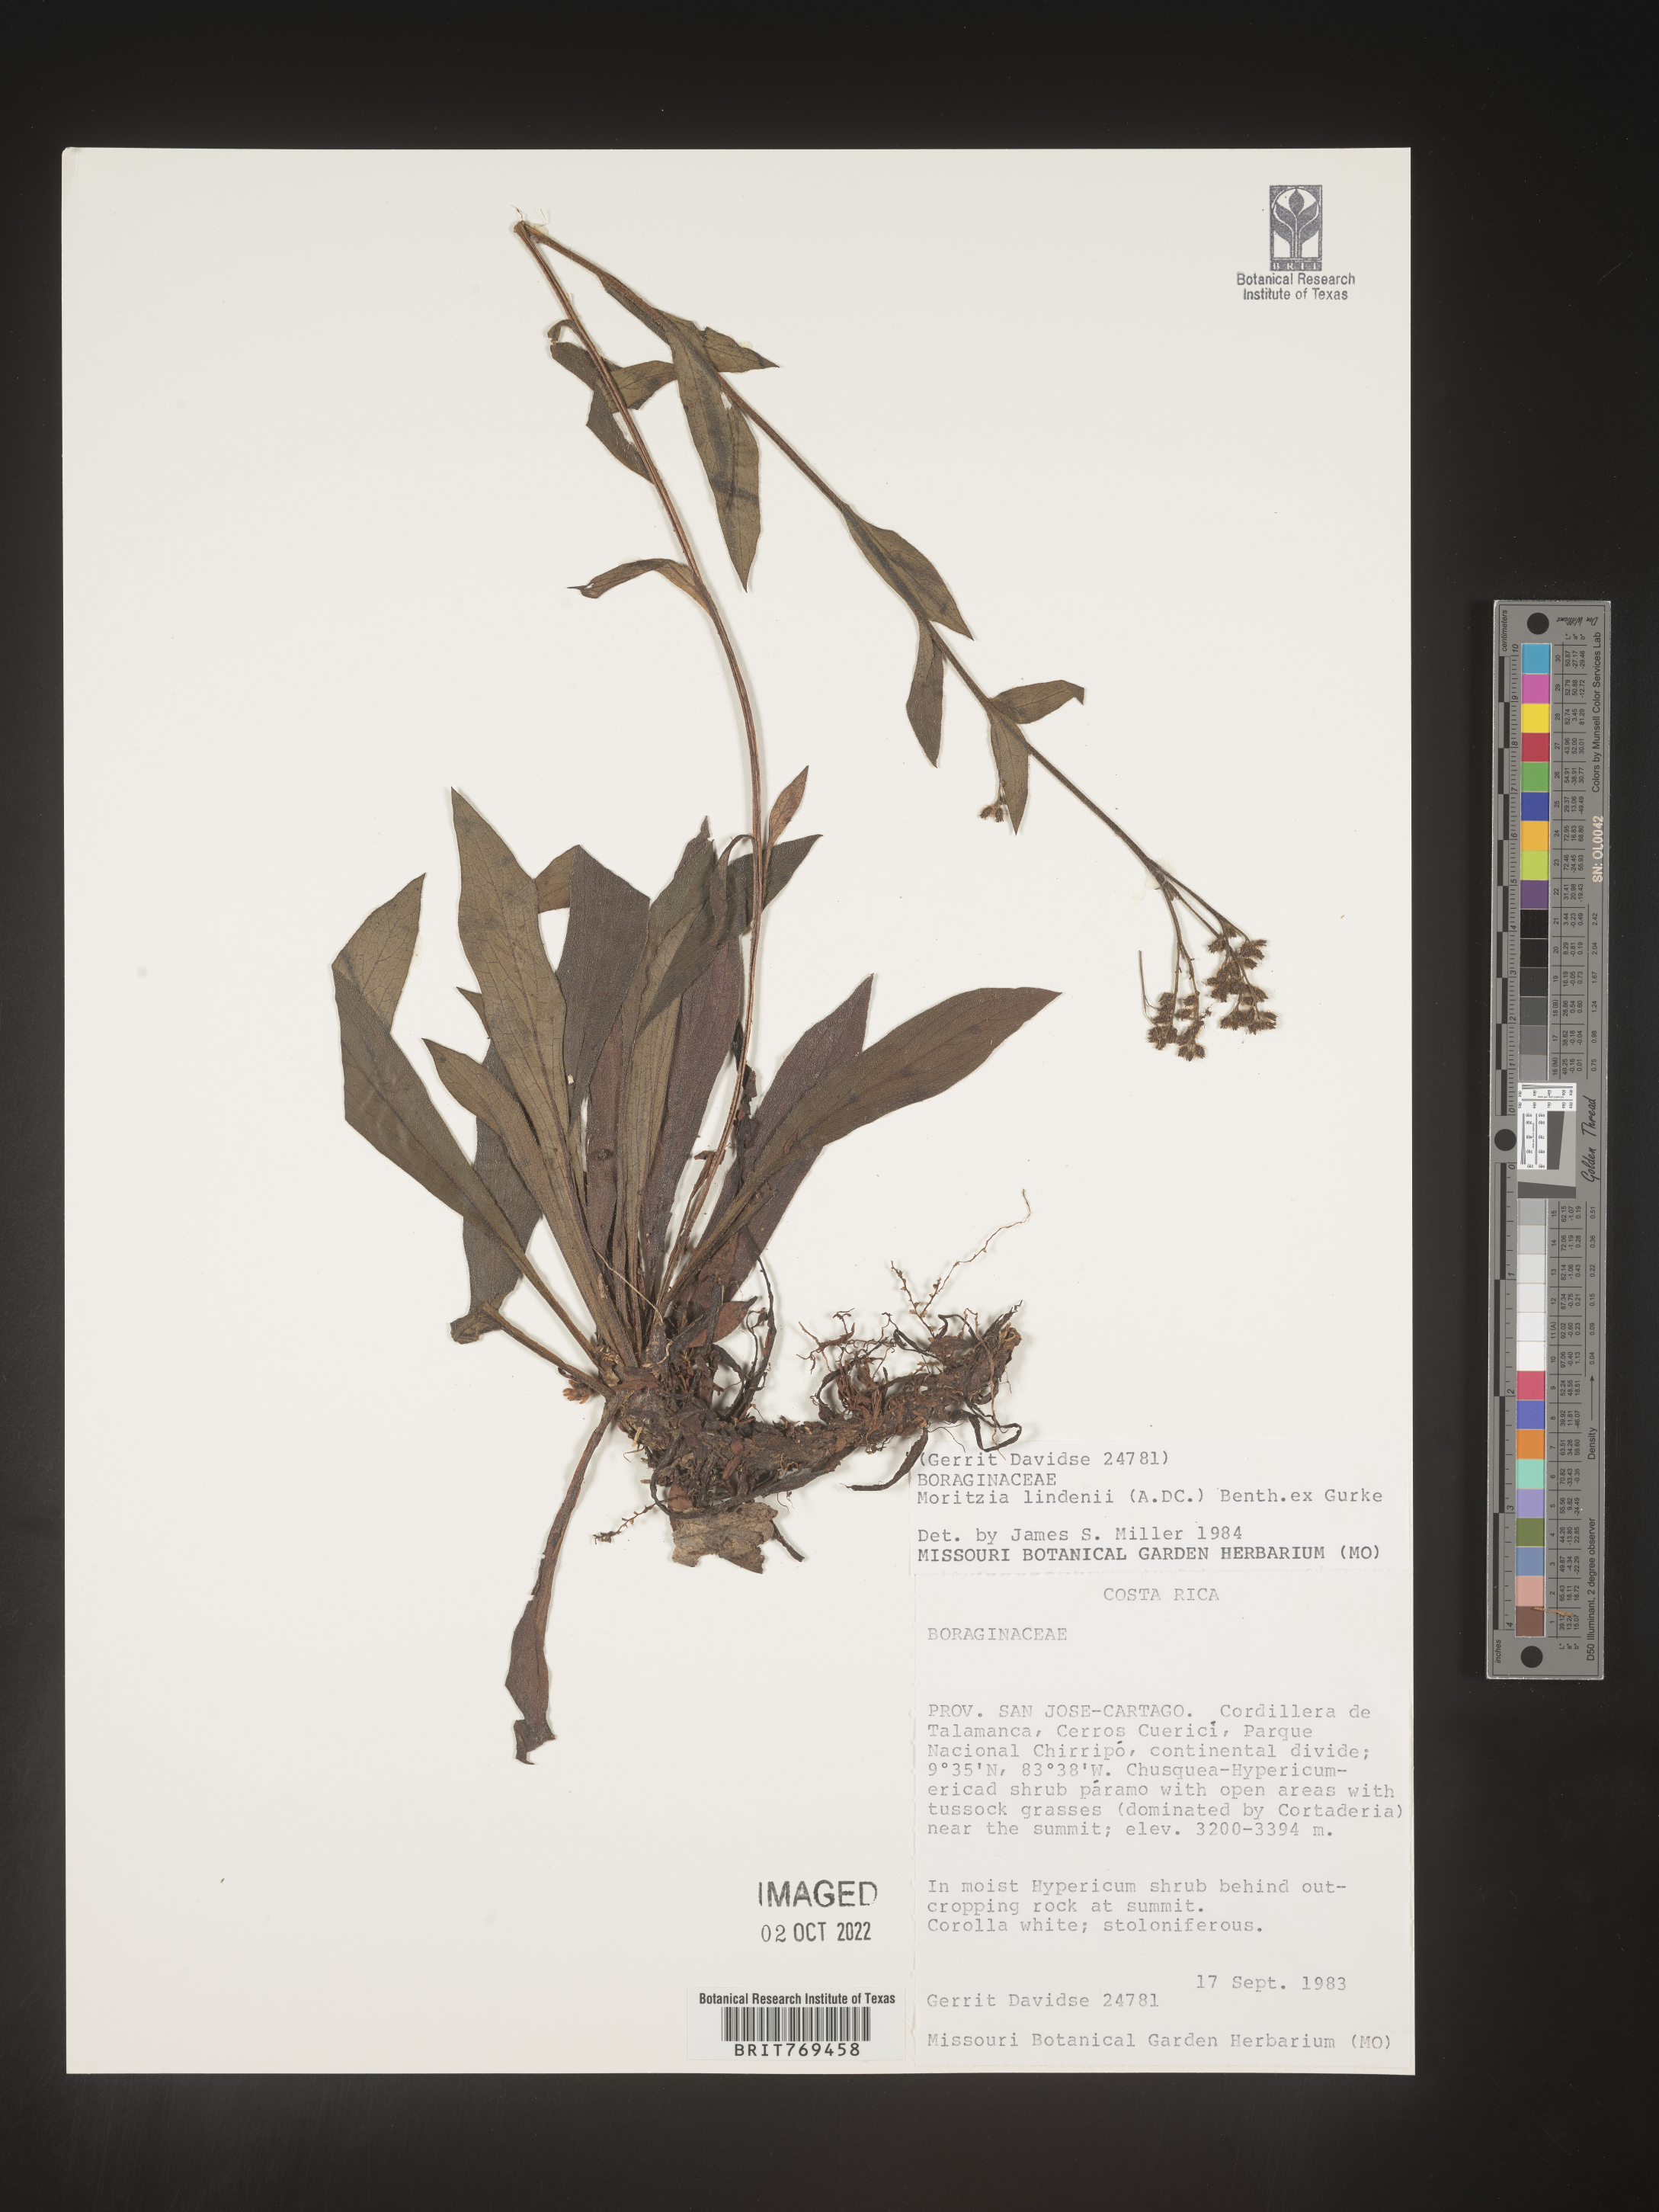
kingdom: Plantae
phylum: Tracheophyta
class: Magnoliopsida
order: Boraginales
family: Boraginaceae
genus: Moritzia
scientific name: Moritzia lindenii
